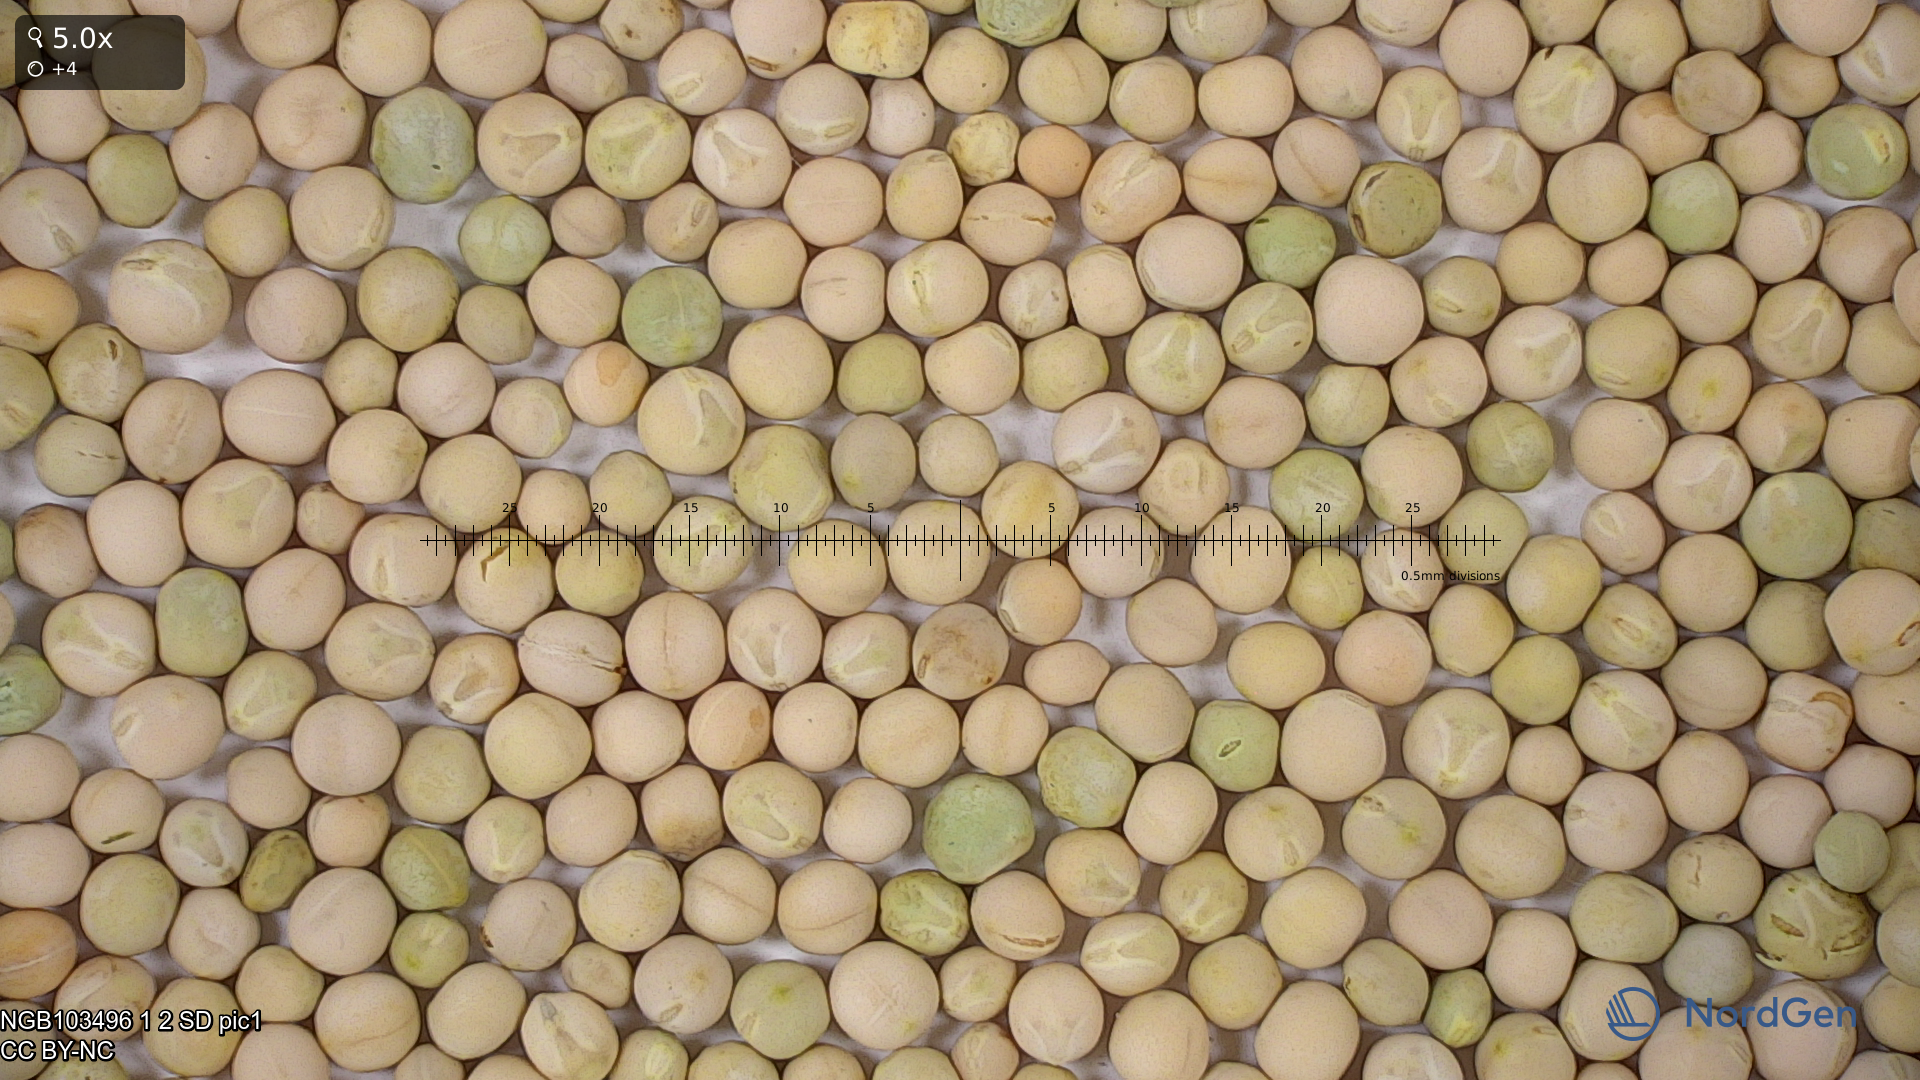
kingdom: Plantae
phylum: Tracheophyta
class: Magnoliopsida
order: Fabales
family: Fabaceae
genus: Lathyrus
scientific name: Lathyrus oleraceus
